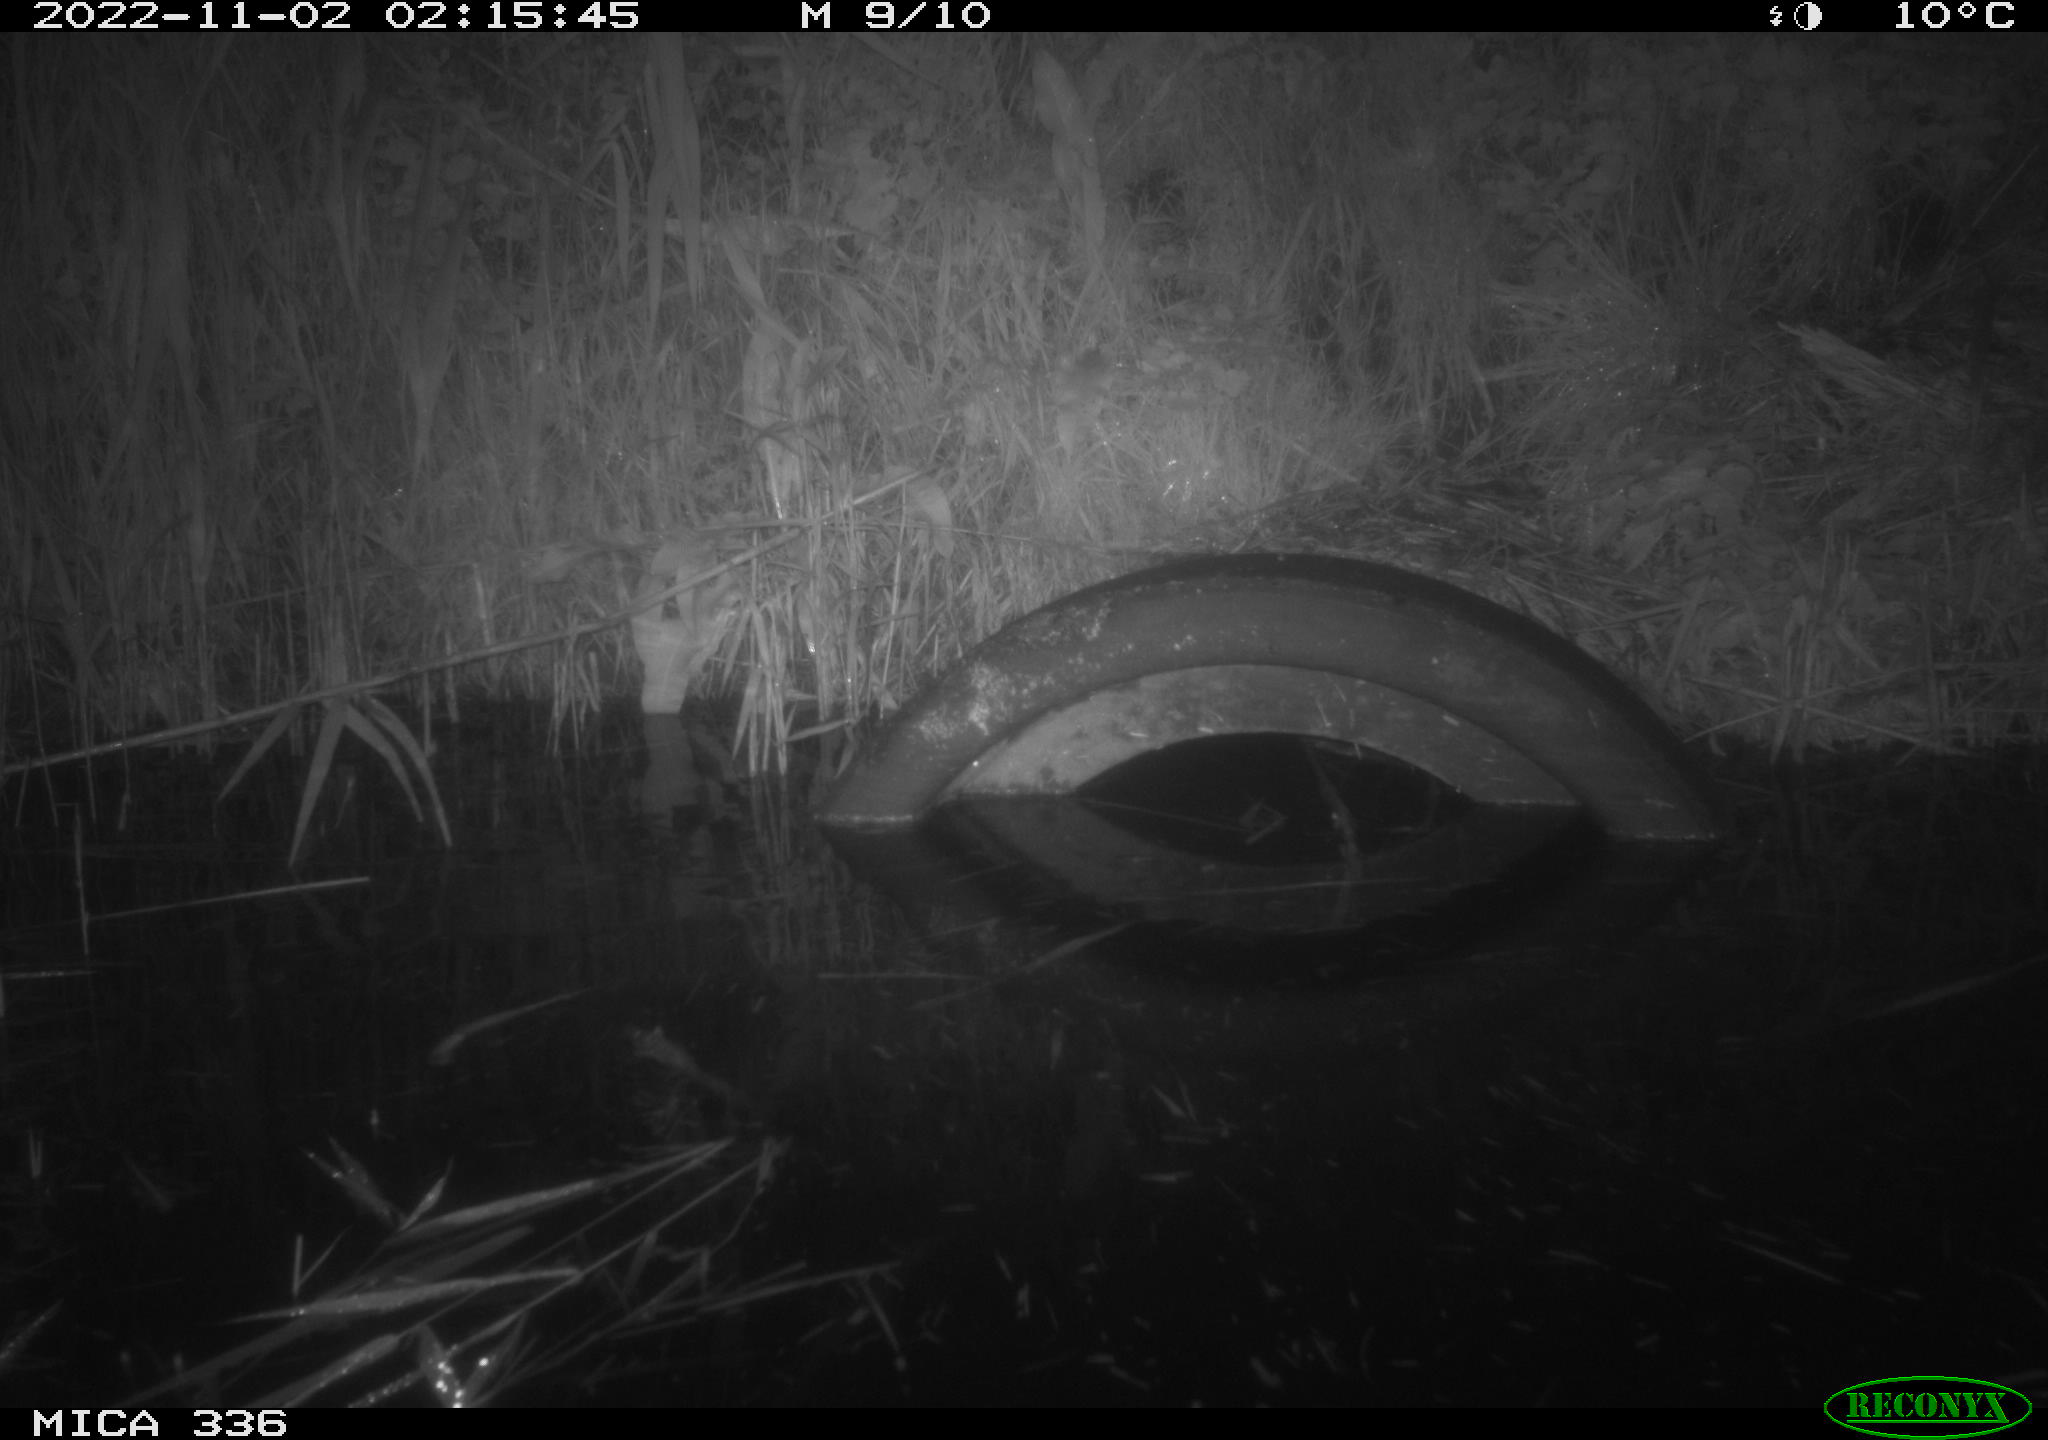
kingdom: Animalia
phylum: Chordata
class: Mammalia
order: Rodentia
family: Muridae
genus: Rattus
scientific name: Rattus norvegicus
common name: Brown rat
